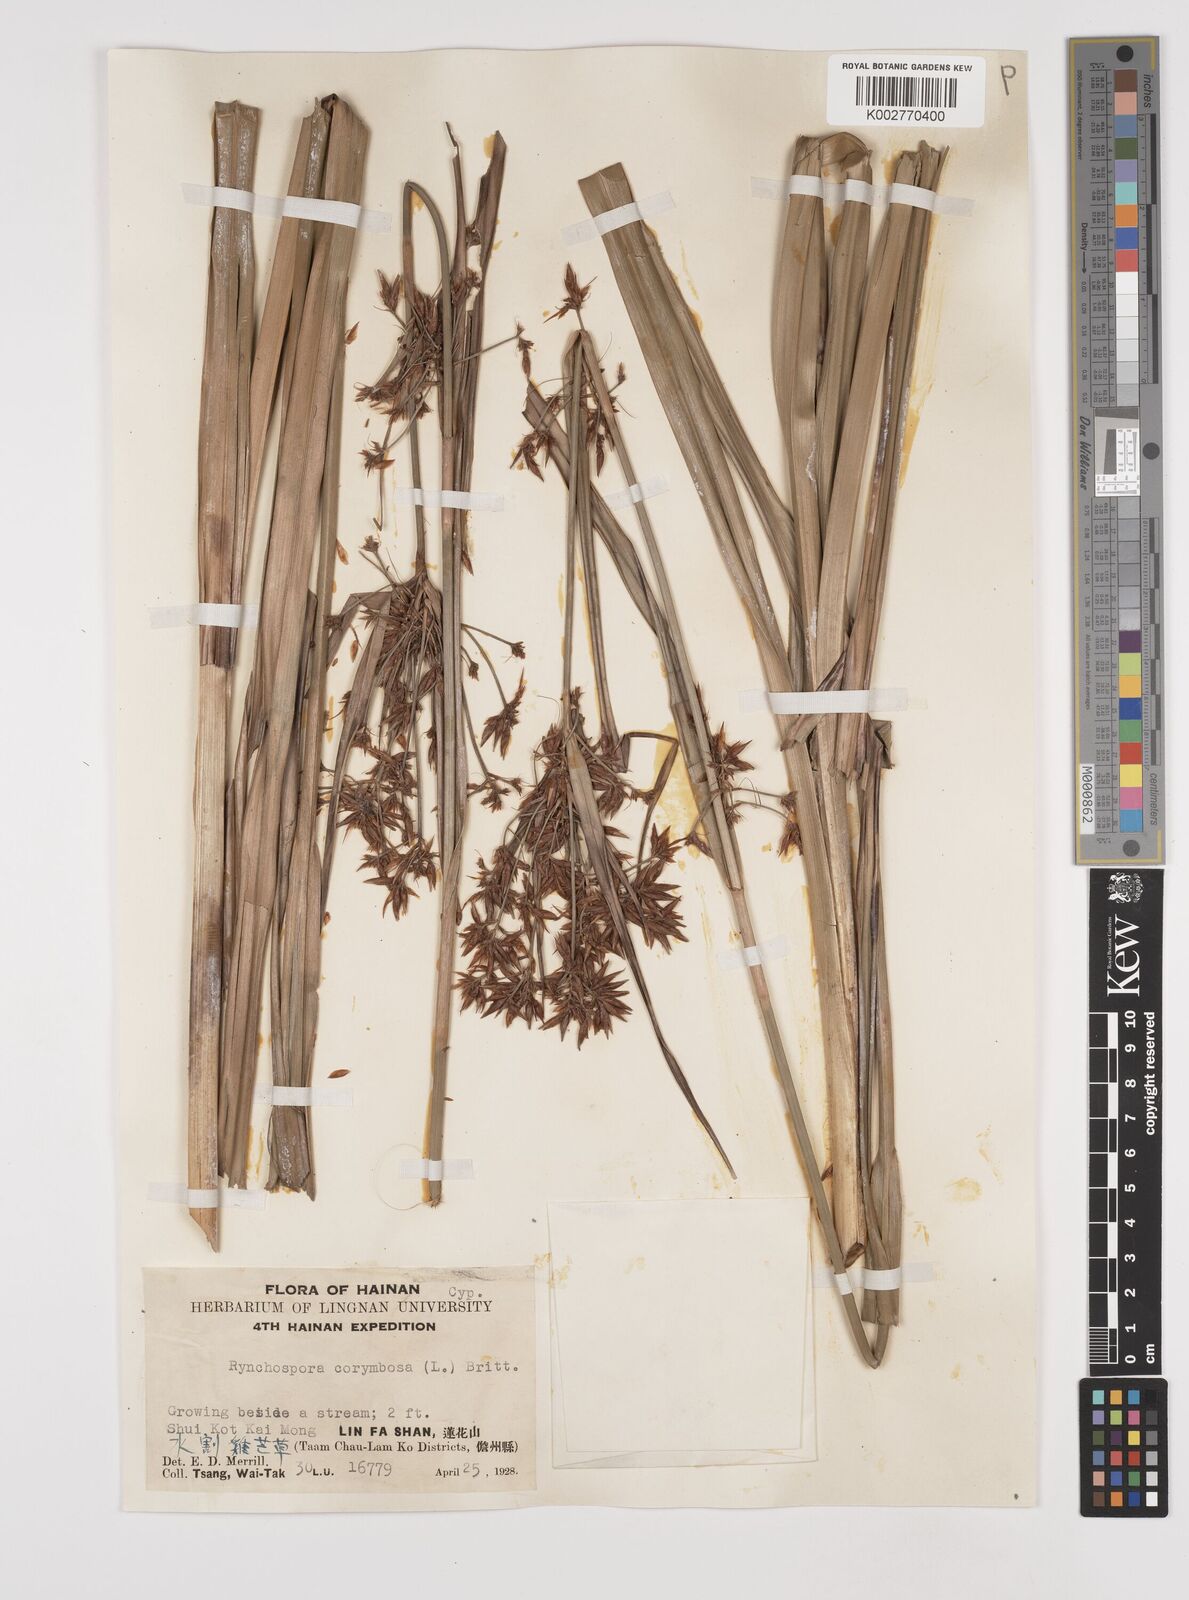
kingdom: Plantae
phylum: Tracheophyta
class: Liliopsida
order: Poales
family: Cyperaceae
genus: Rhynchospora
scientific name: Rhynchospora corymbosa
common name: Golden beak sedge
